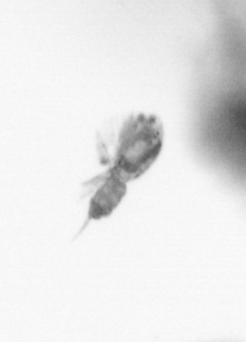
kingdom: Animalia
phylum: Arthropoda
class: Copepoda
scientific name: Copepoda
